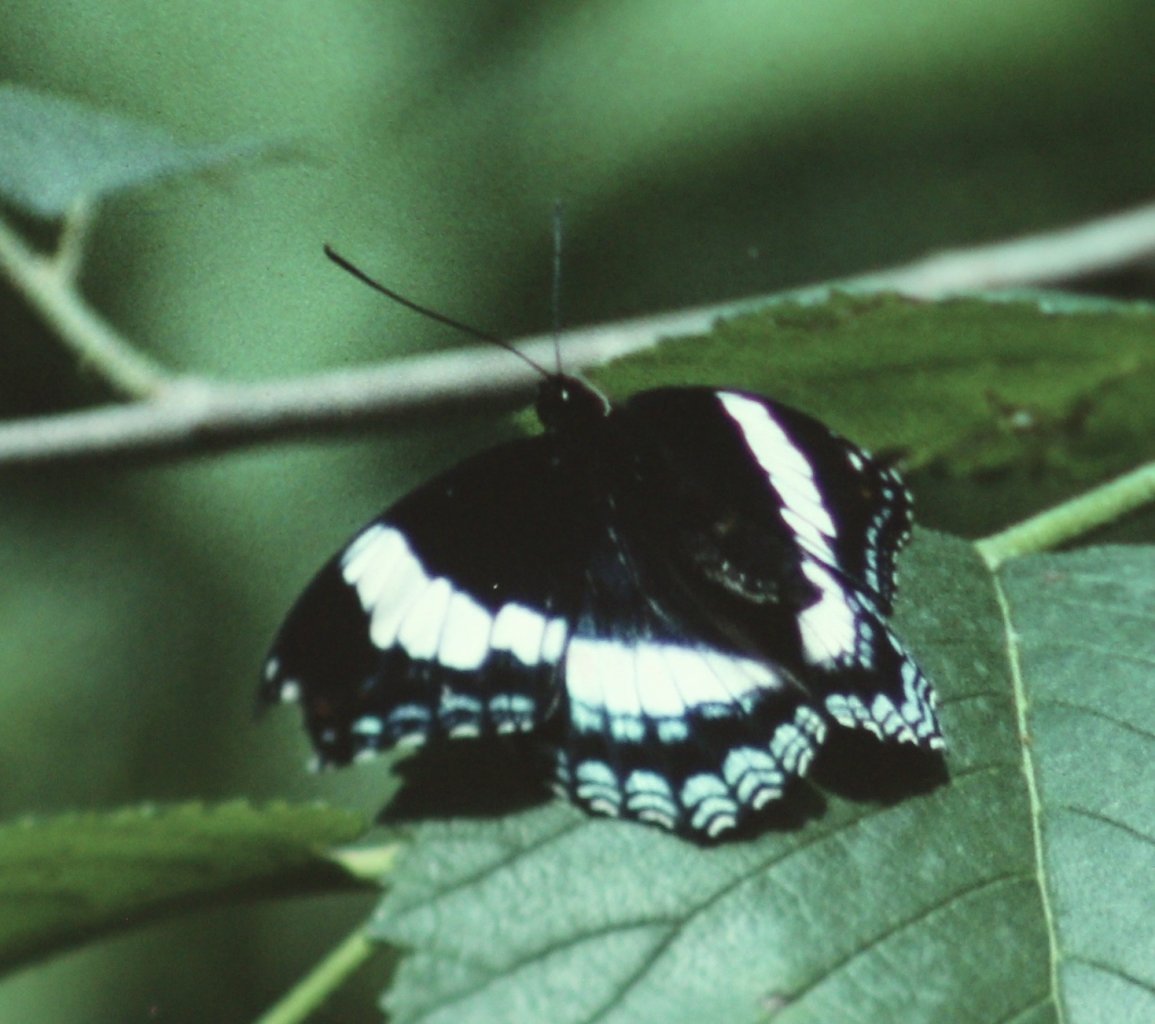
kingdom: Animalia
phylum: Arthropoda
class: Insecta
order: Lepidoptera
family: Nymphalidae
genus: Limenitis
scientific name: Limenitis arthemis
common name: Red-spotted Admiral
